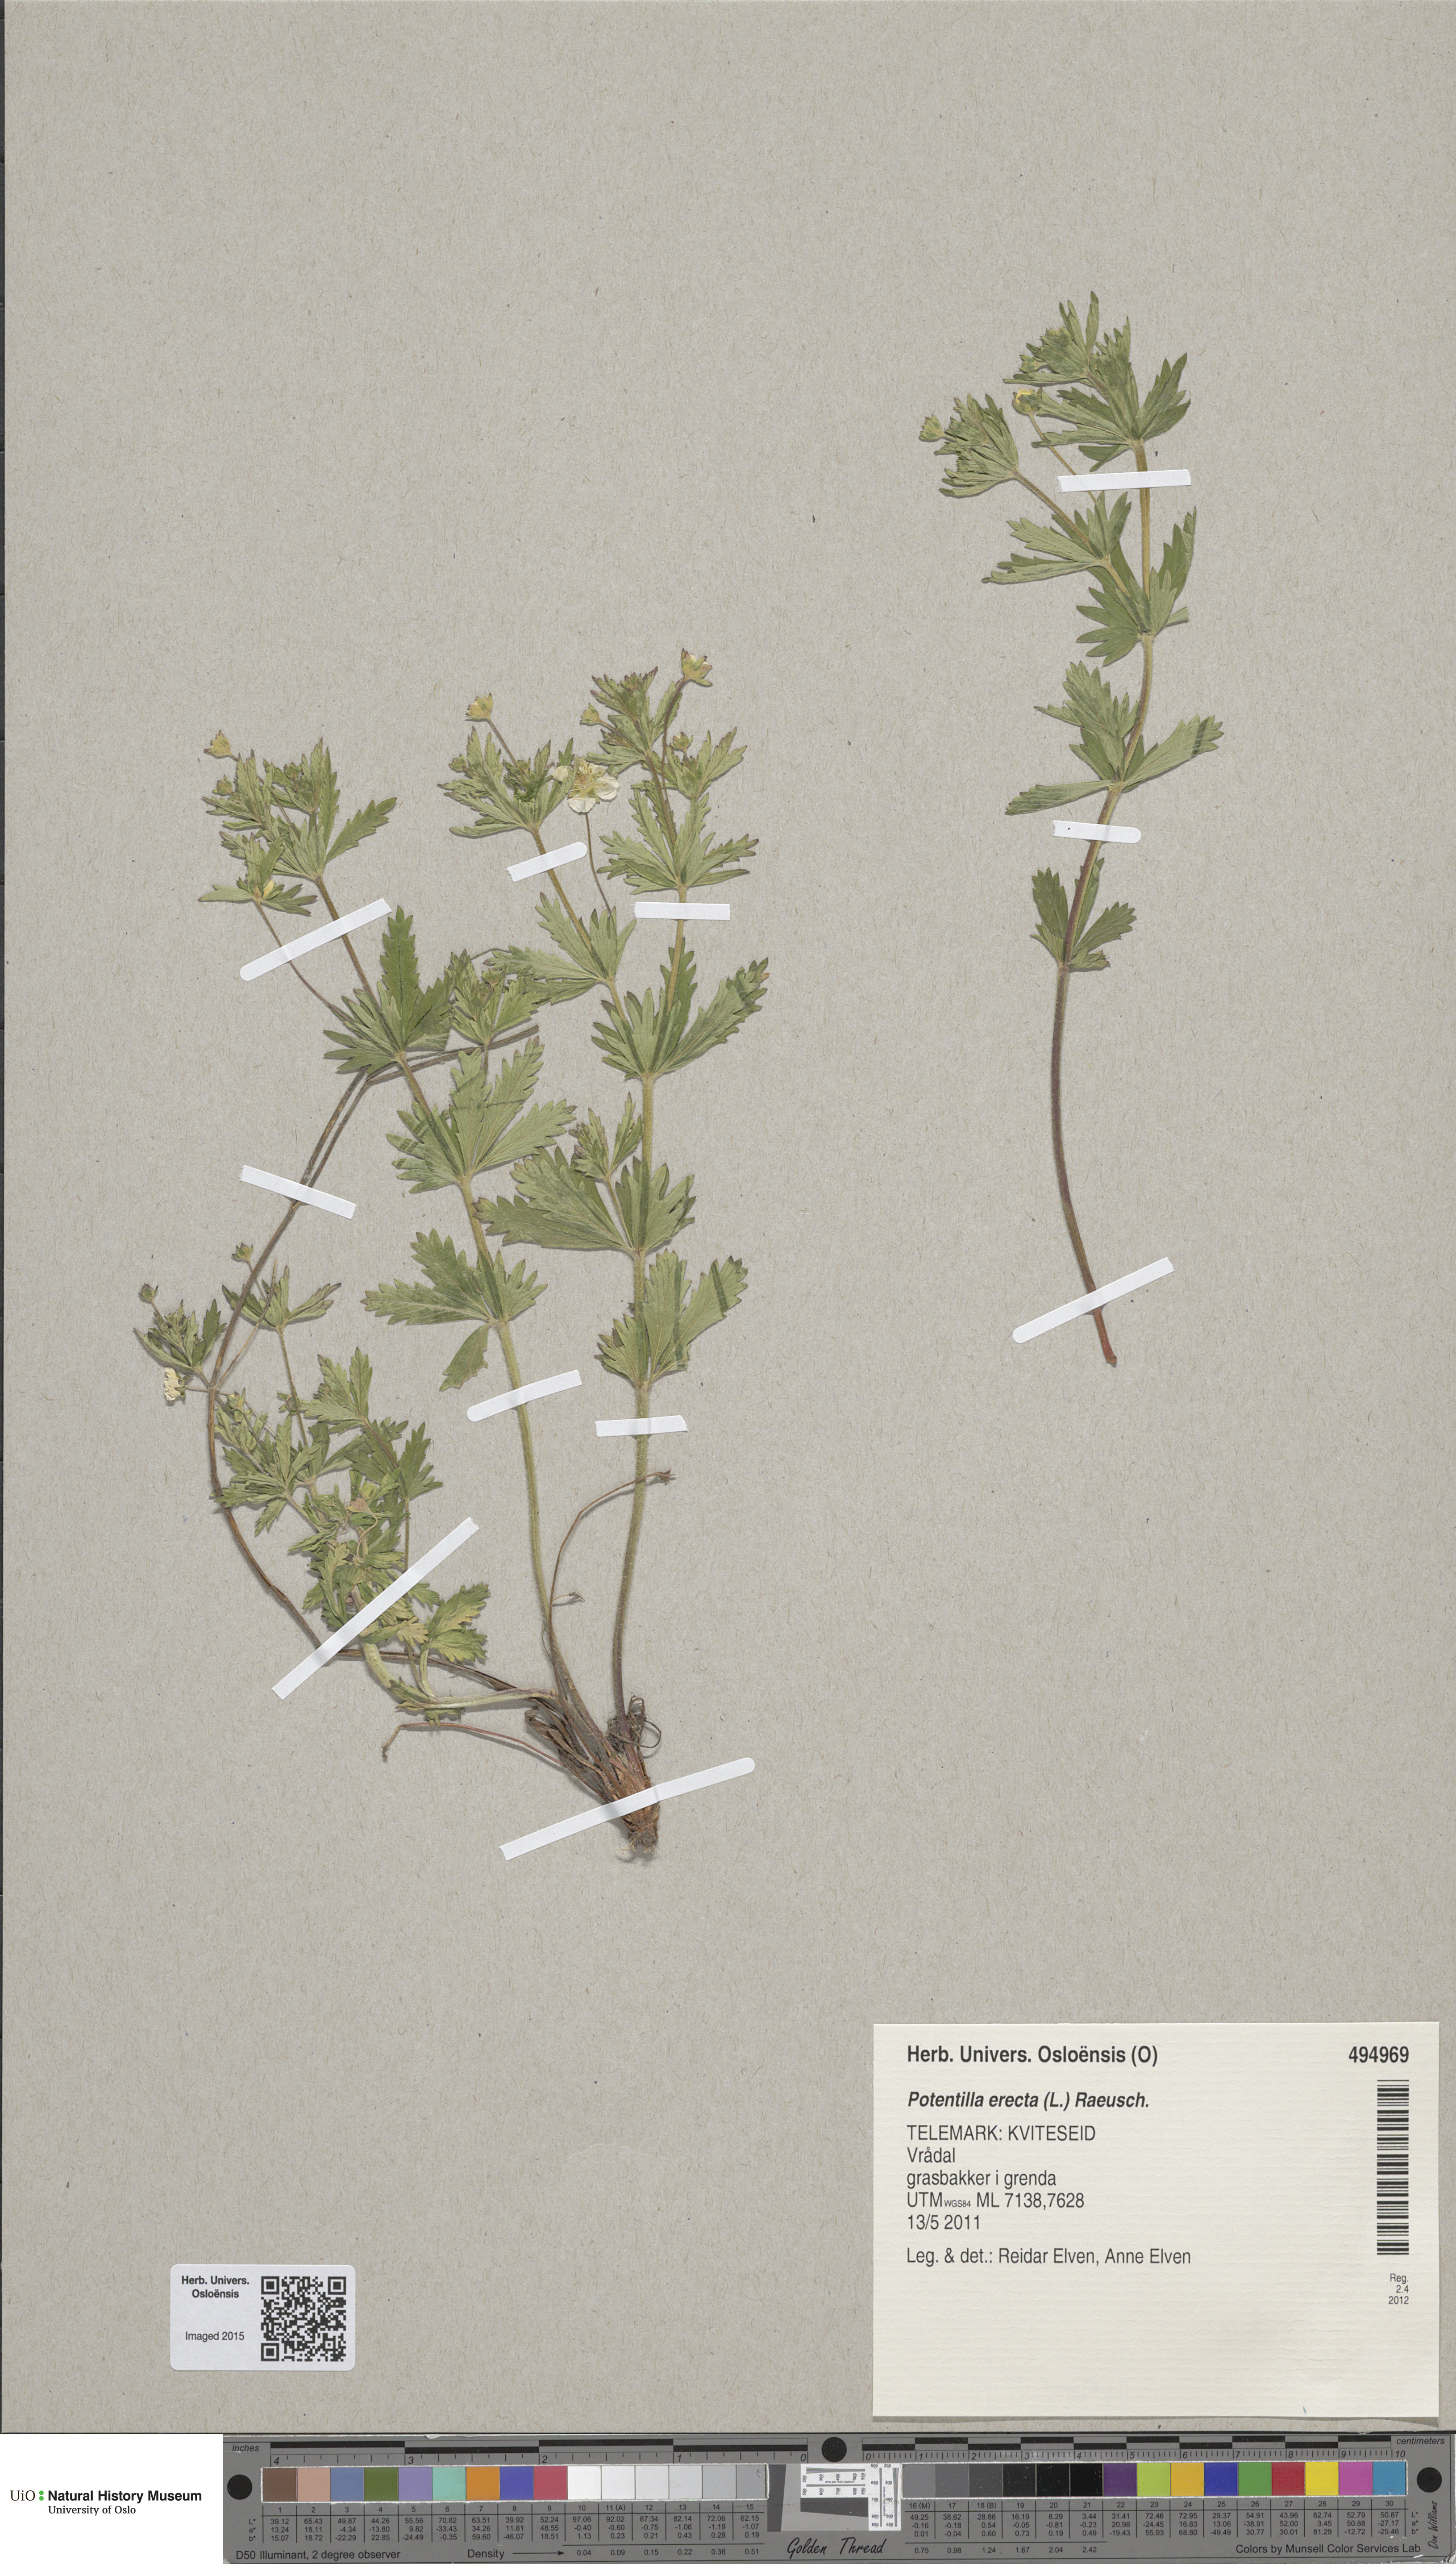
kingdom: Plantae
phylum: Tracheophyta
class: Magnoliopsida
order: Rosales
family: Rosaceae
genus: Potentilla
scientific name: Potentilla erecta
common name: Tormentil
